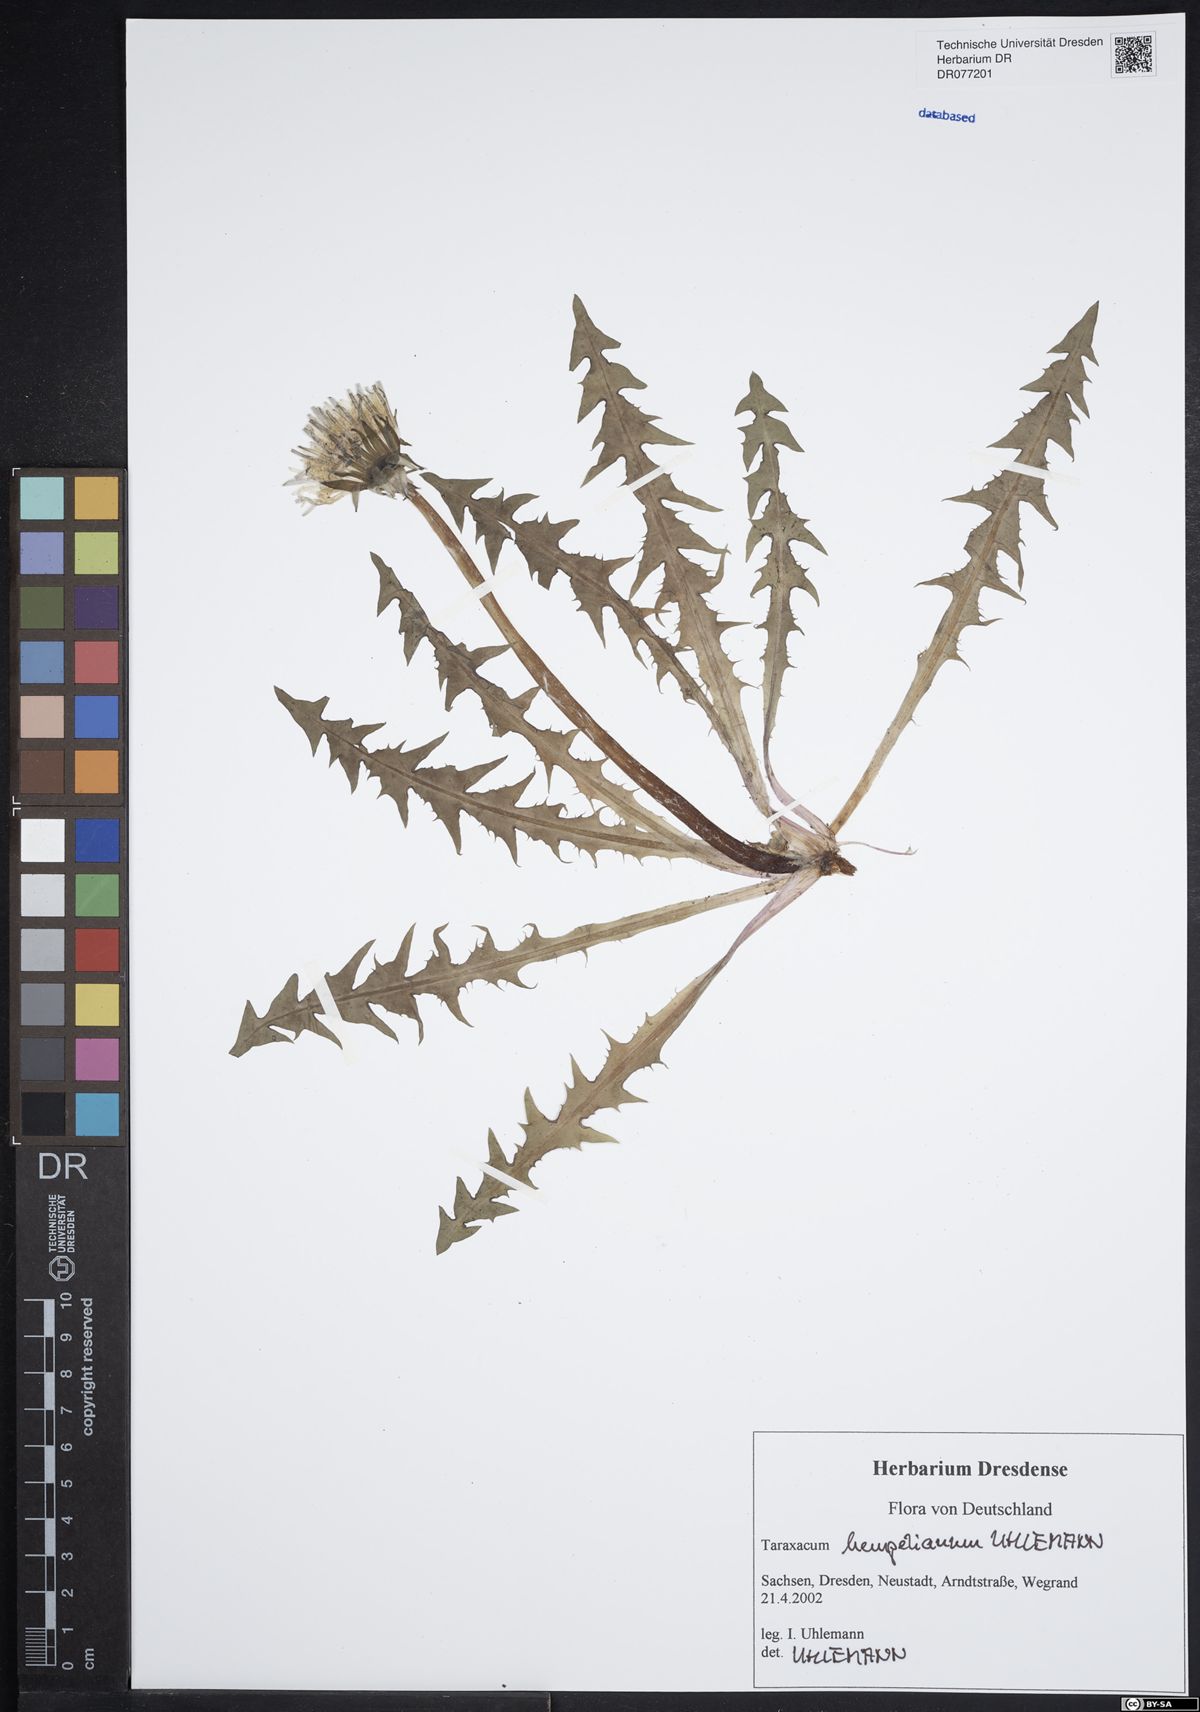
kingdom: Plantae
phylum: Tracheophyta
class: Magnoliopsida
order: Asterales
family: Asteraceae
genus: Taraxacum
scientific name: Taraxacum hempelianum
